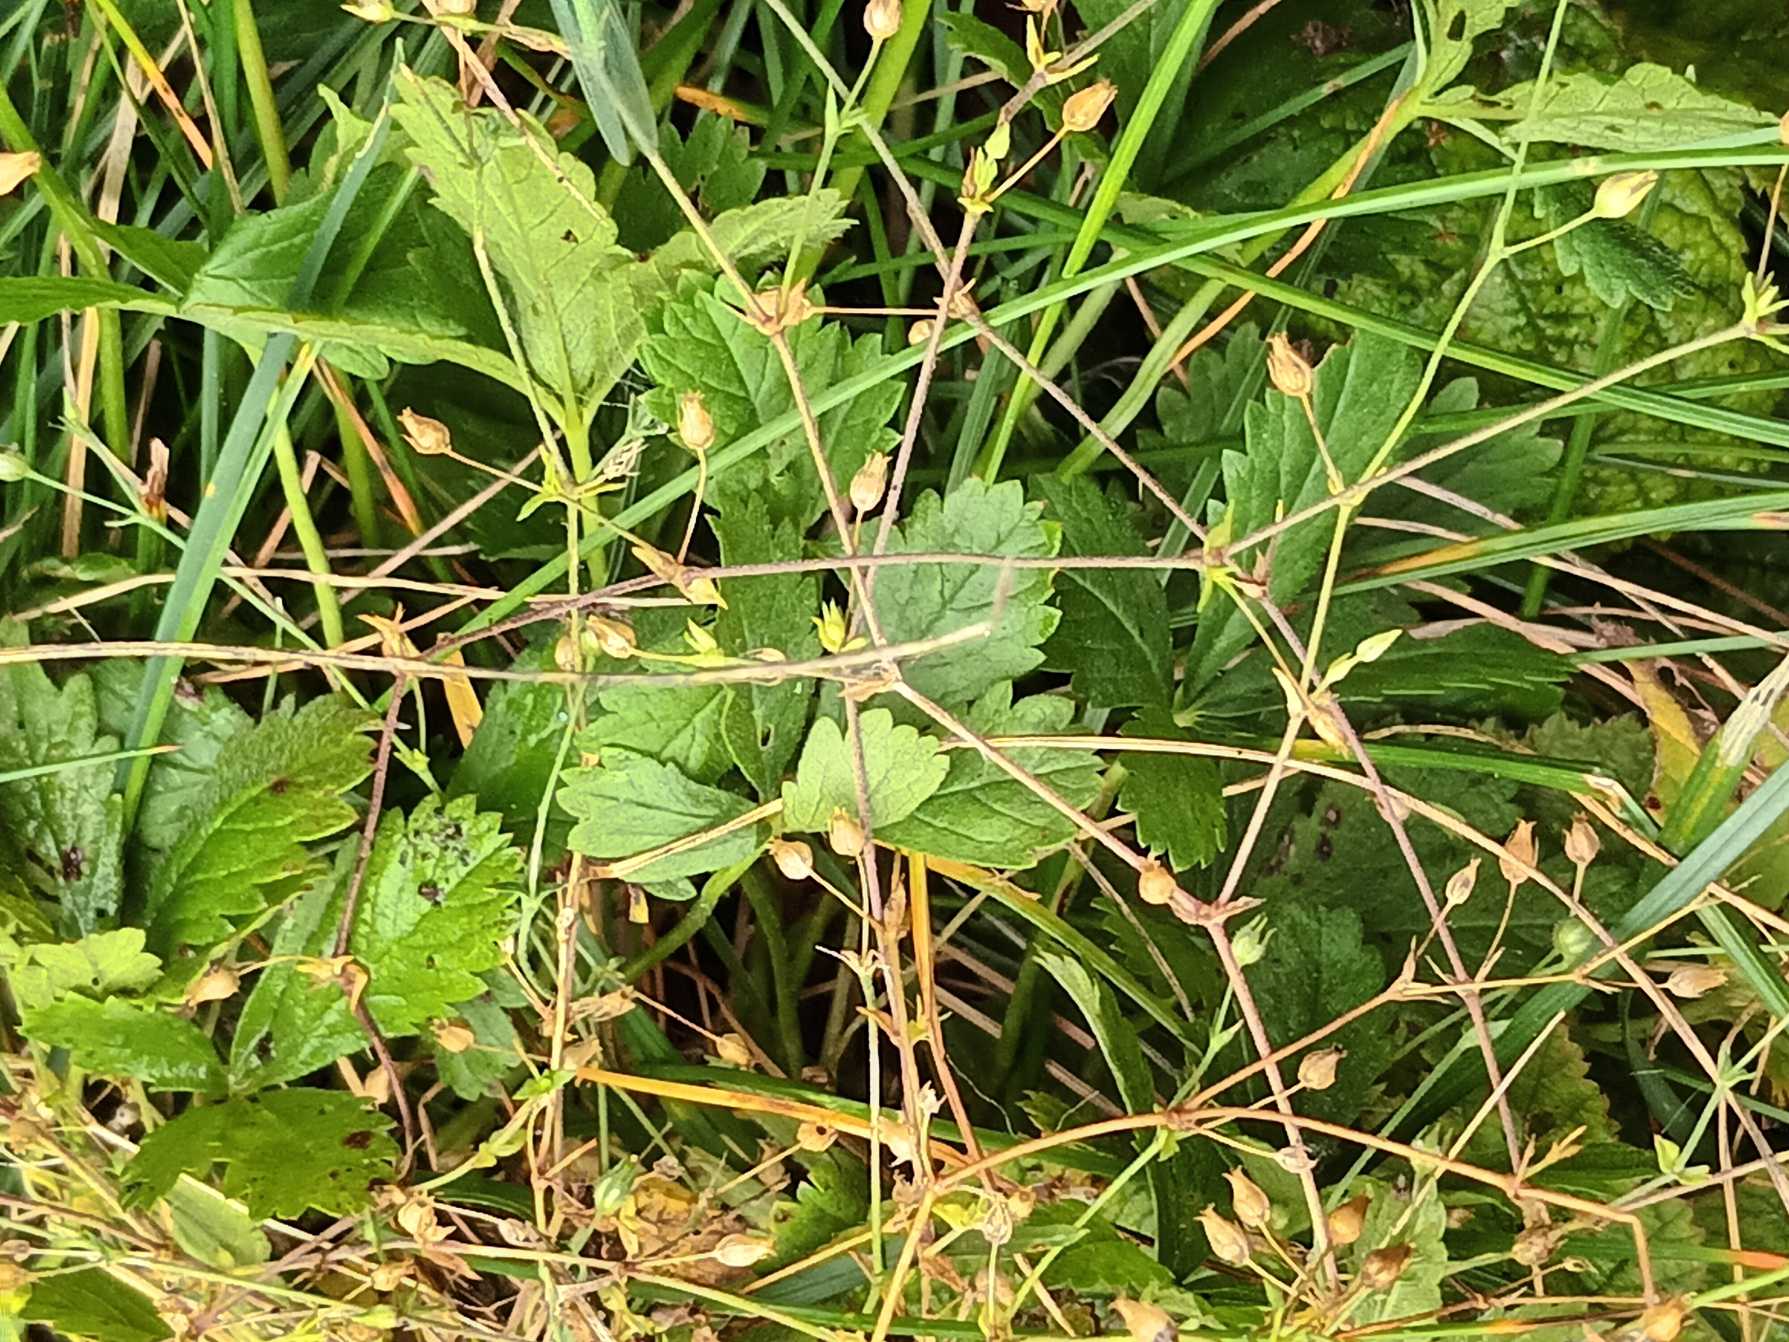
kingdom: Plantae
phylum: Tracheophyta
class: Magnoliopsida
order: Caryophyllales
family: Caryophyllaceae
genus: Arenaria
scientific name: Arenaria serpyllifolia
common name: Almindelig markarve
